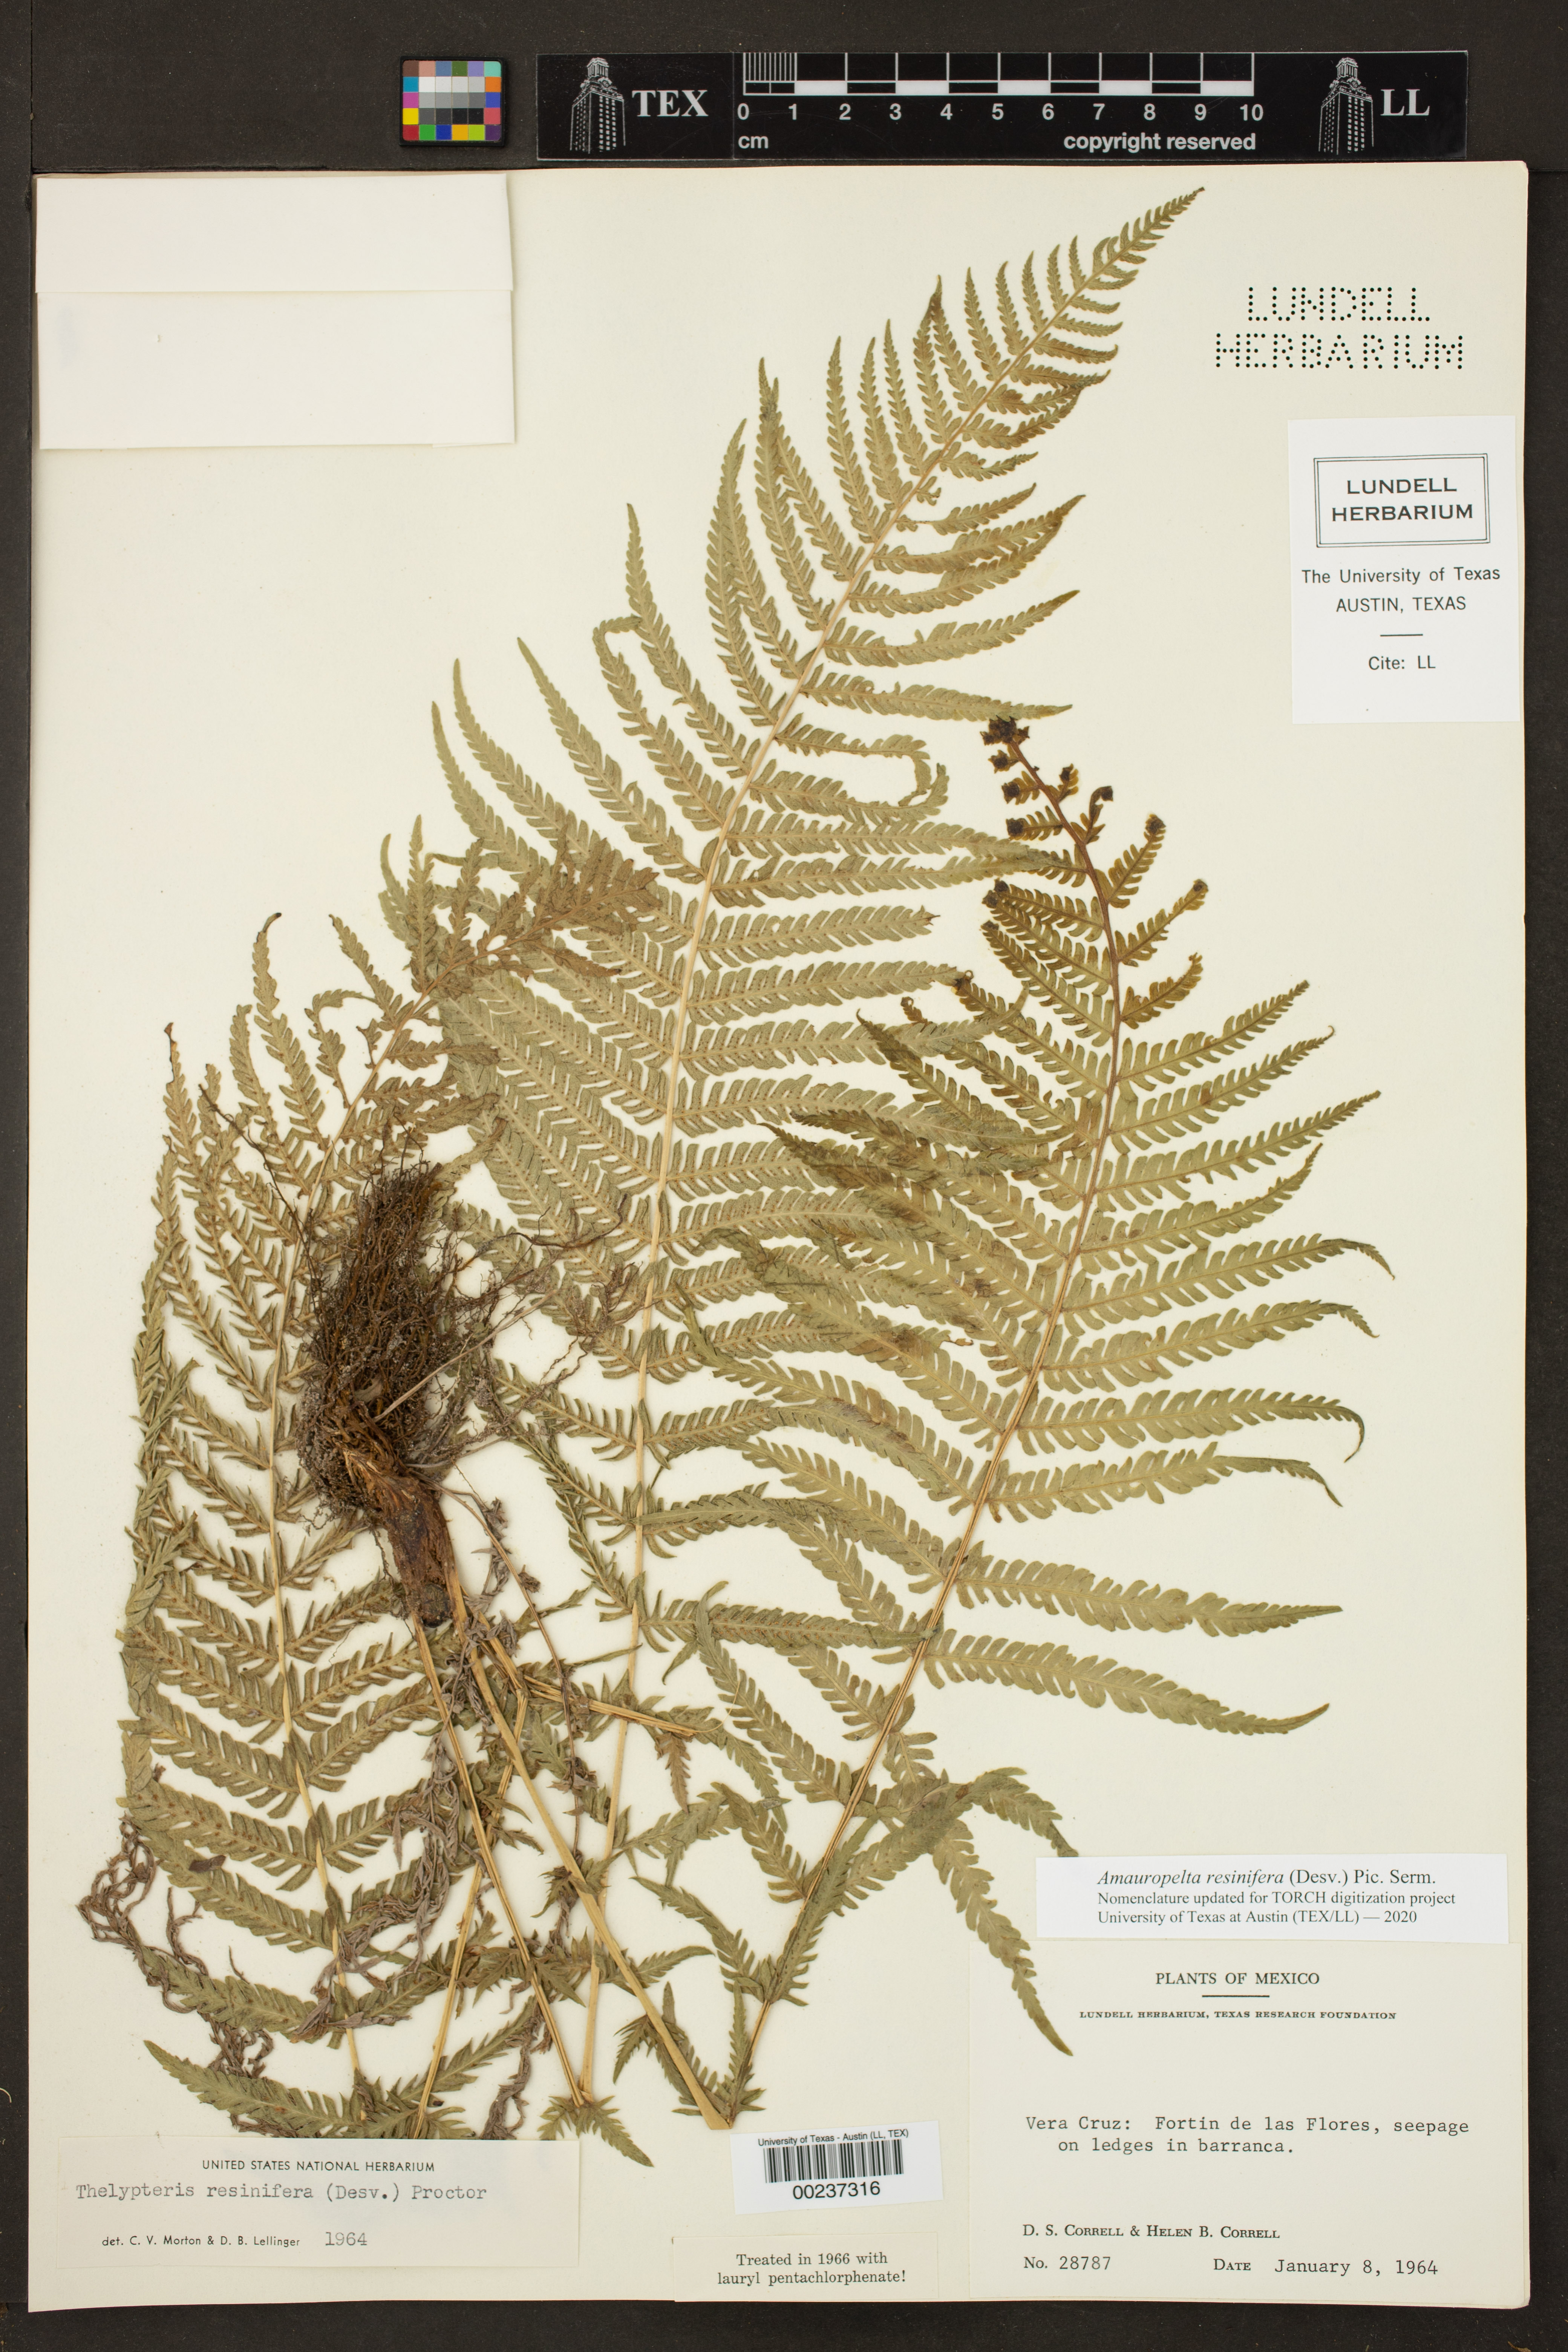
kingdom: Plantae
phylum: Tracheophyta
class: Polypodiopsida
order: Polypodiales
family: Thelypteridaceae
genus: Amauropelta
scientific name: Amauropelta resinifera
